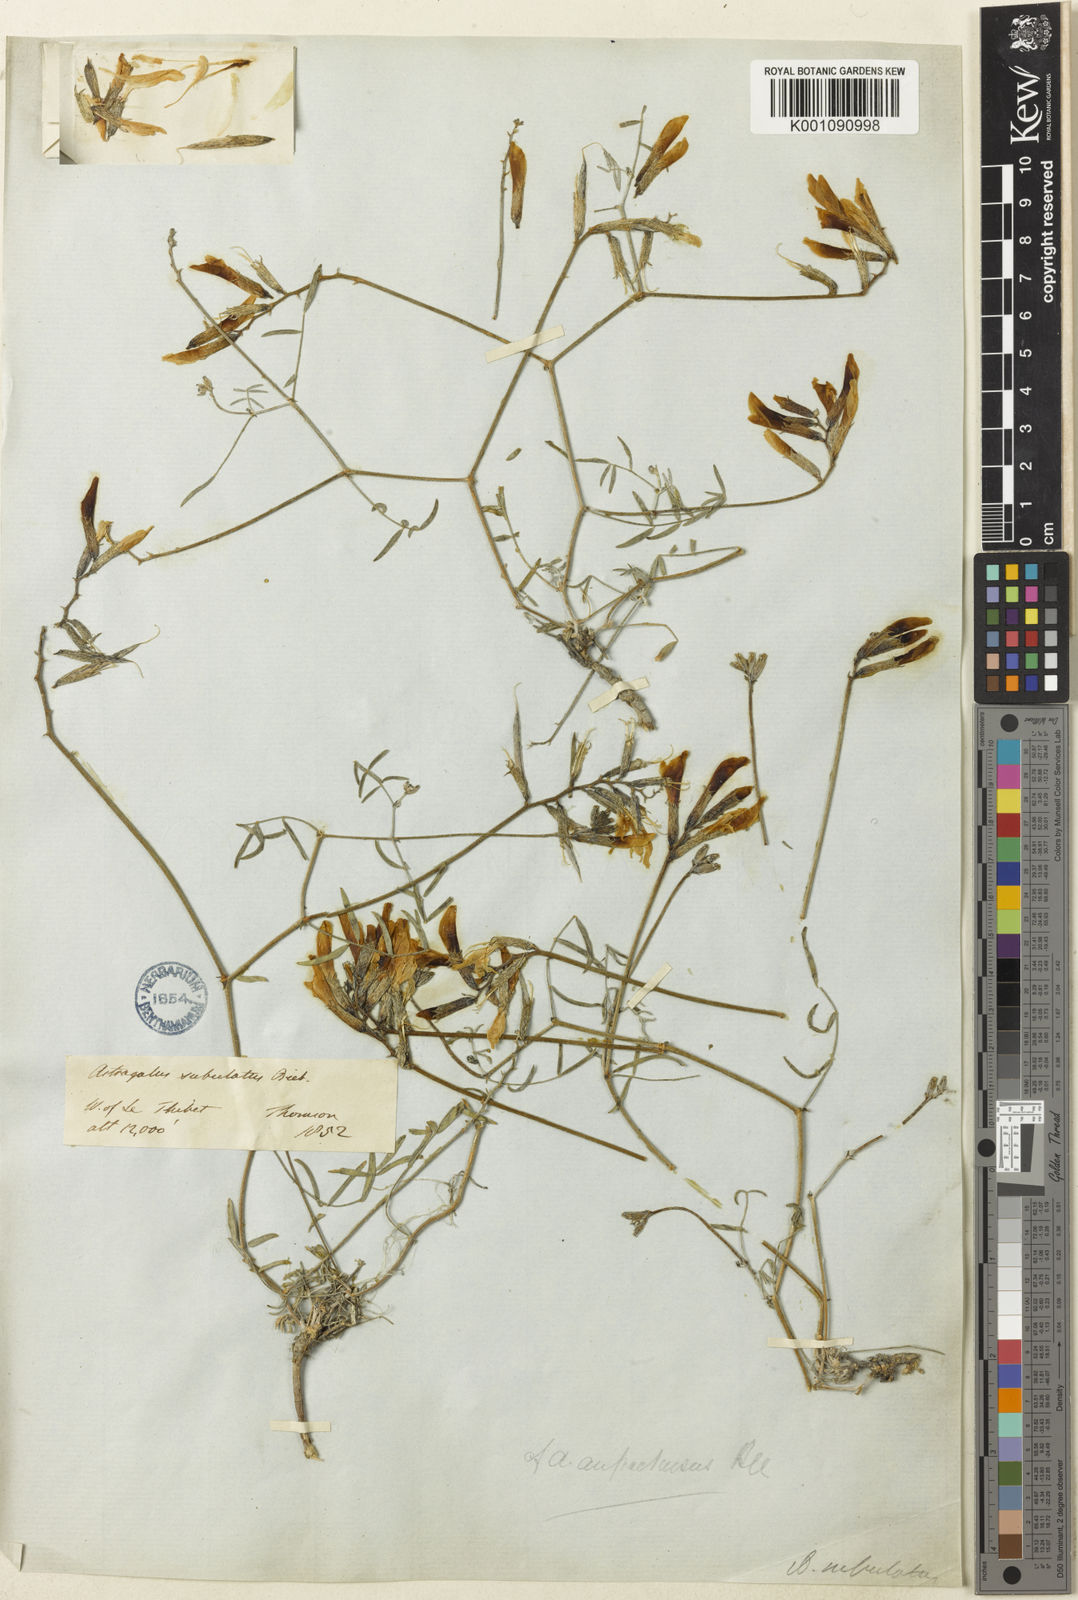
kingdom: Plantae
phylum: Tracheophyta
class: Magnoliopsida
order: Fabales
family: Fabaceae
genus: Astragalus
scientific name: Astragalus
